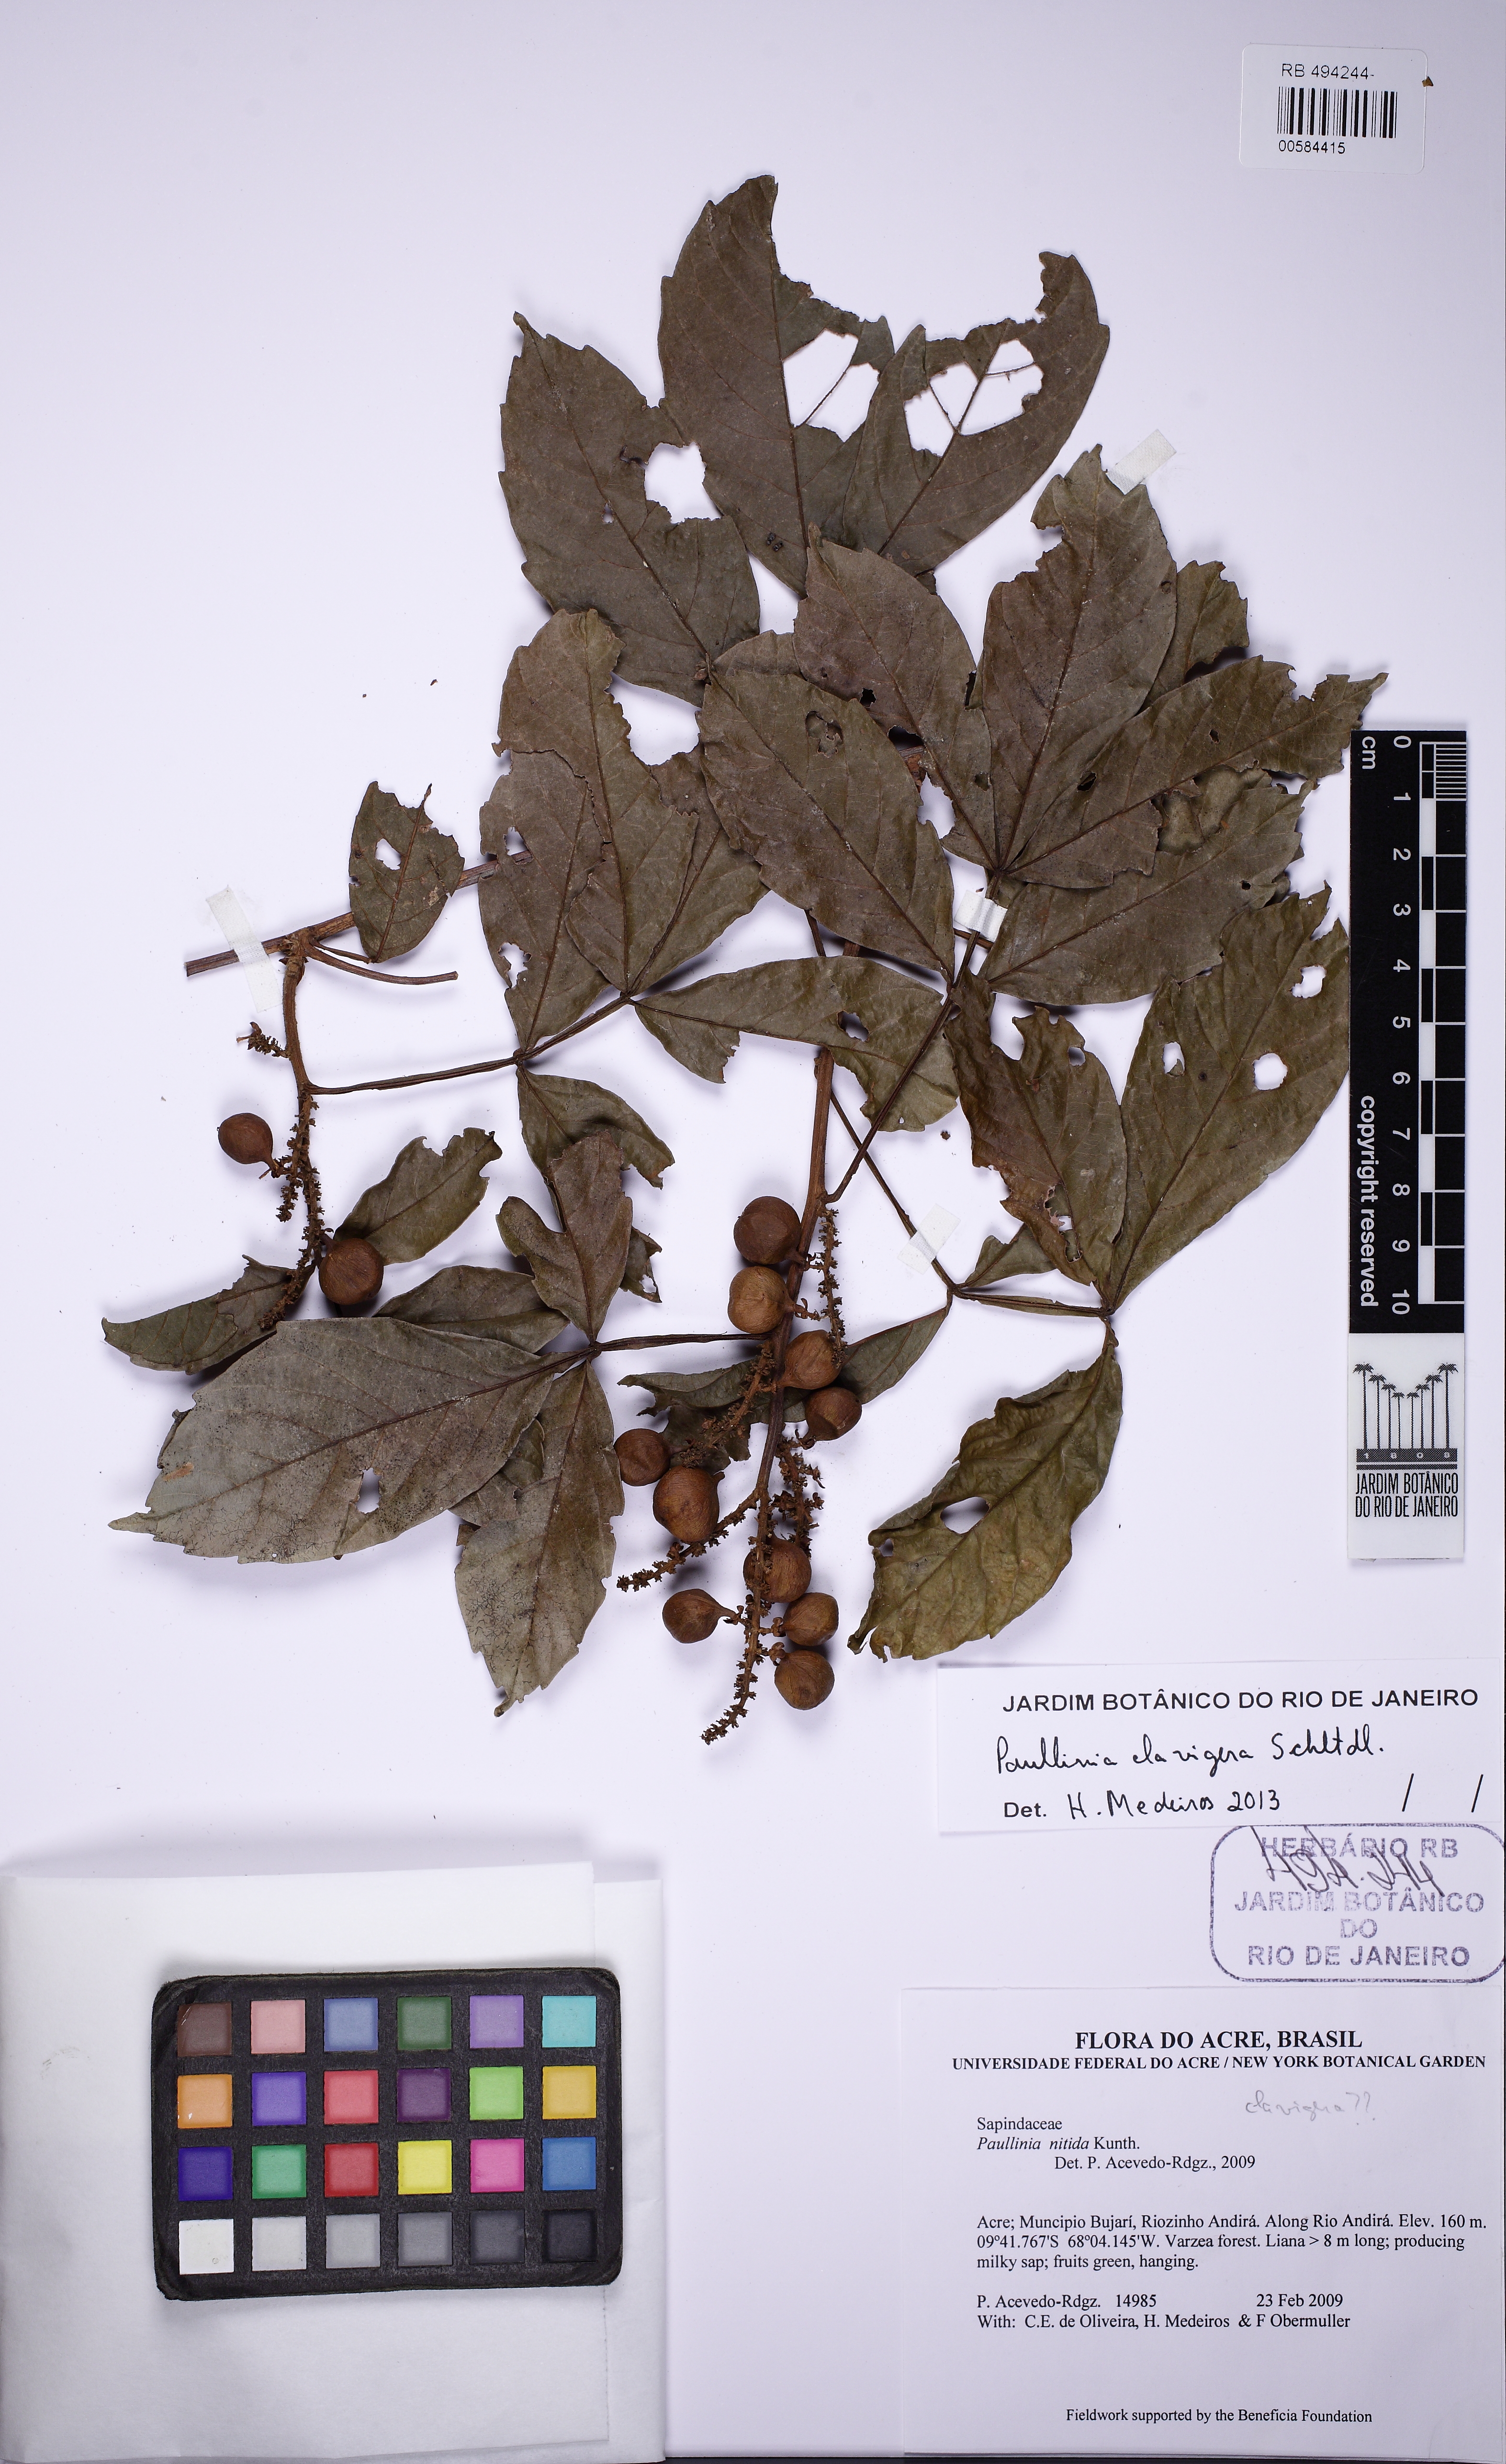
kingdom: Plantae
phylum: Tracheophyta
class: Magnoliopsida
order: Sapindales
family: Sapindaceae
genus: Paullinia
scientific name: Paullinia clavigera
